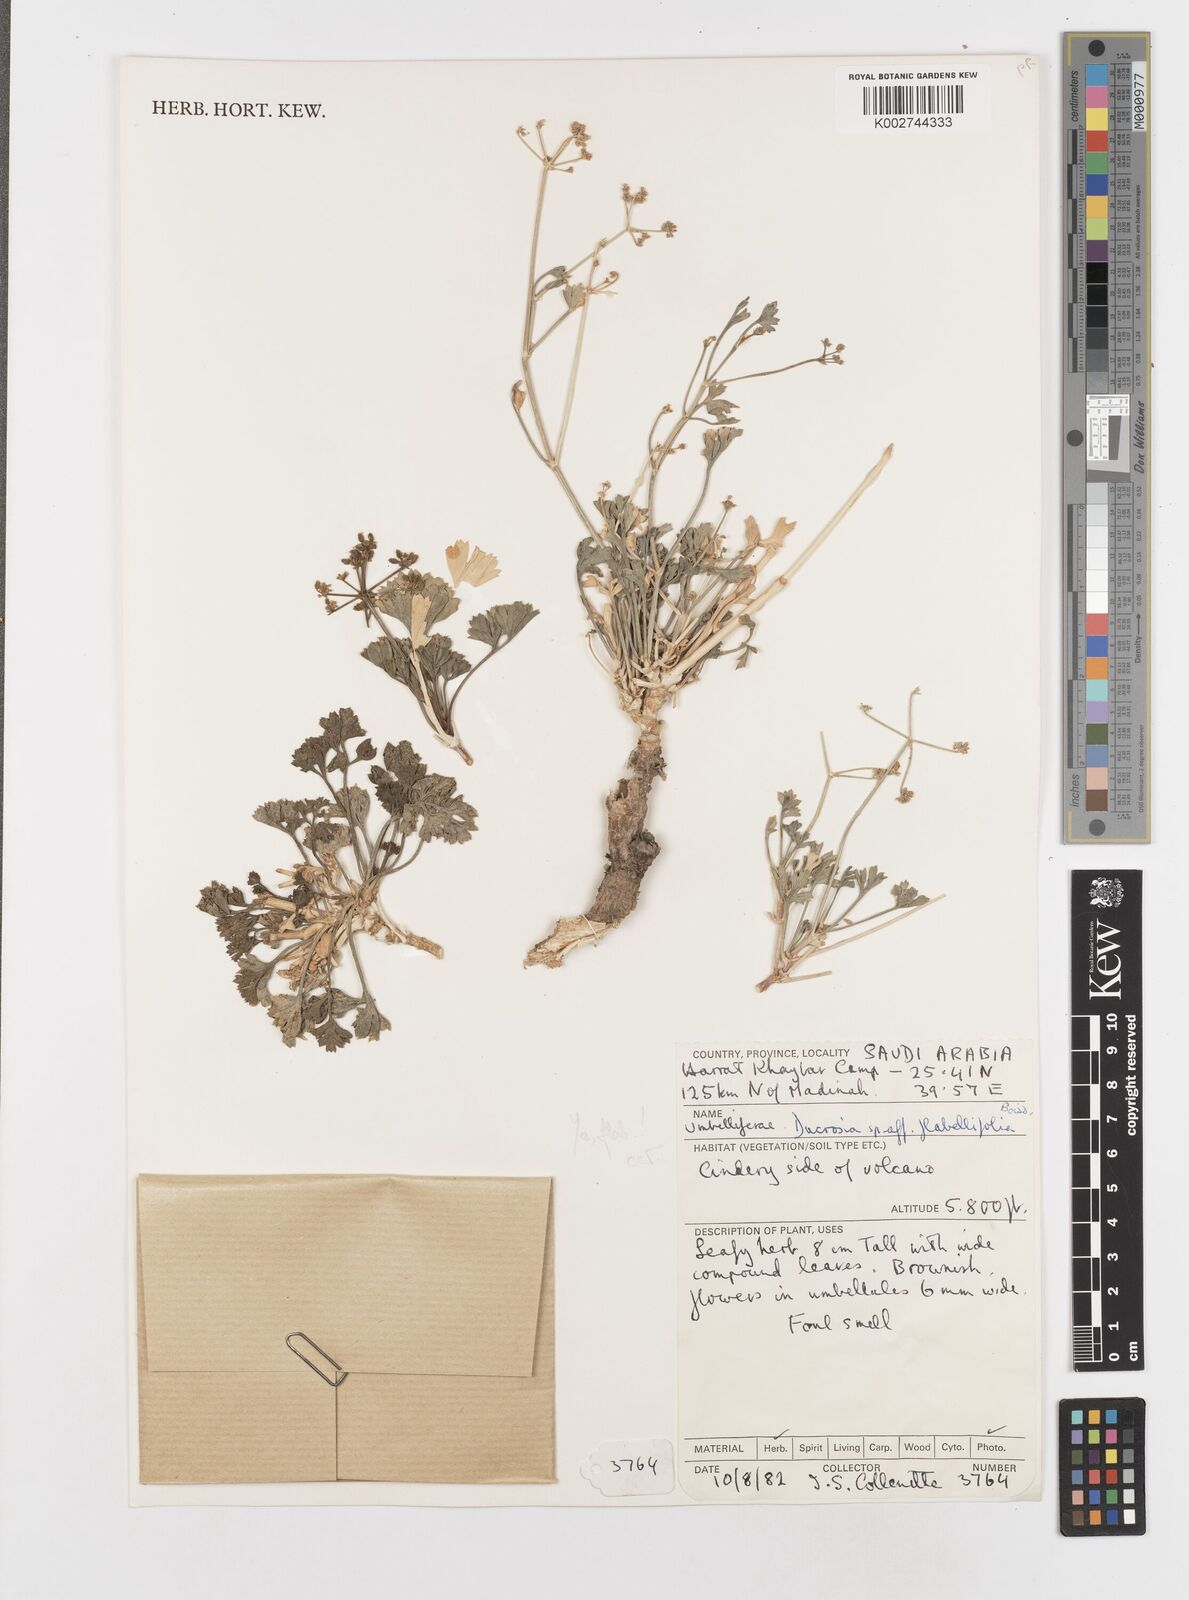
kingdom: Plantae
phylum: Tracheophyta
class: Magnoliopsida
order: Apiales
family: Apiaceae
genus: Ducrosia
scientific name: Ducrosia flabellifolia
